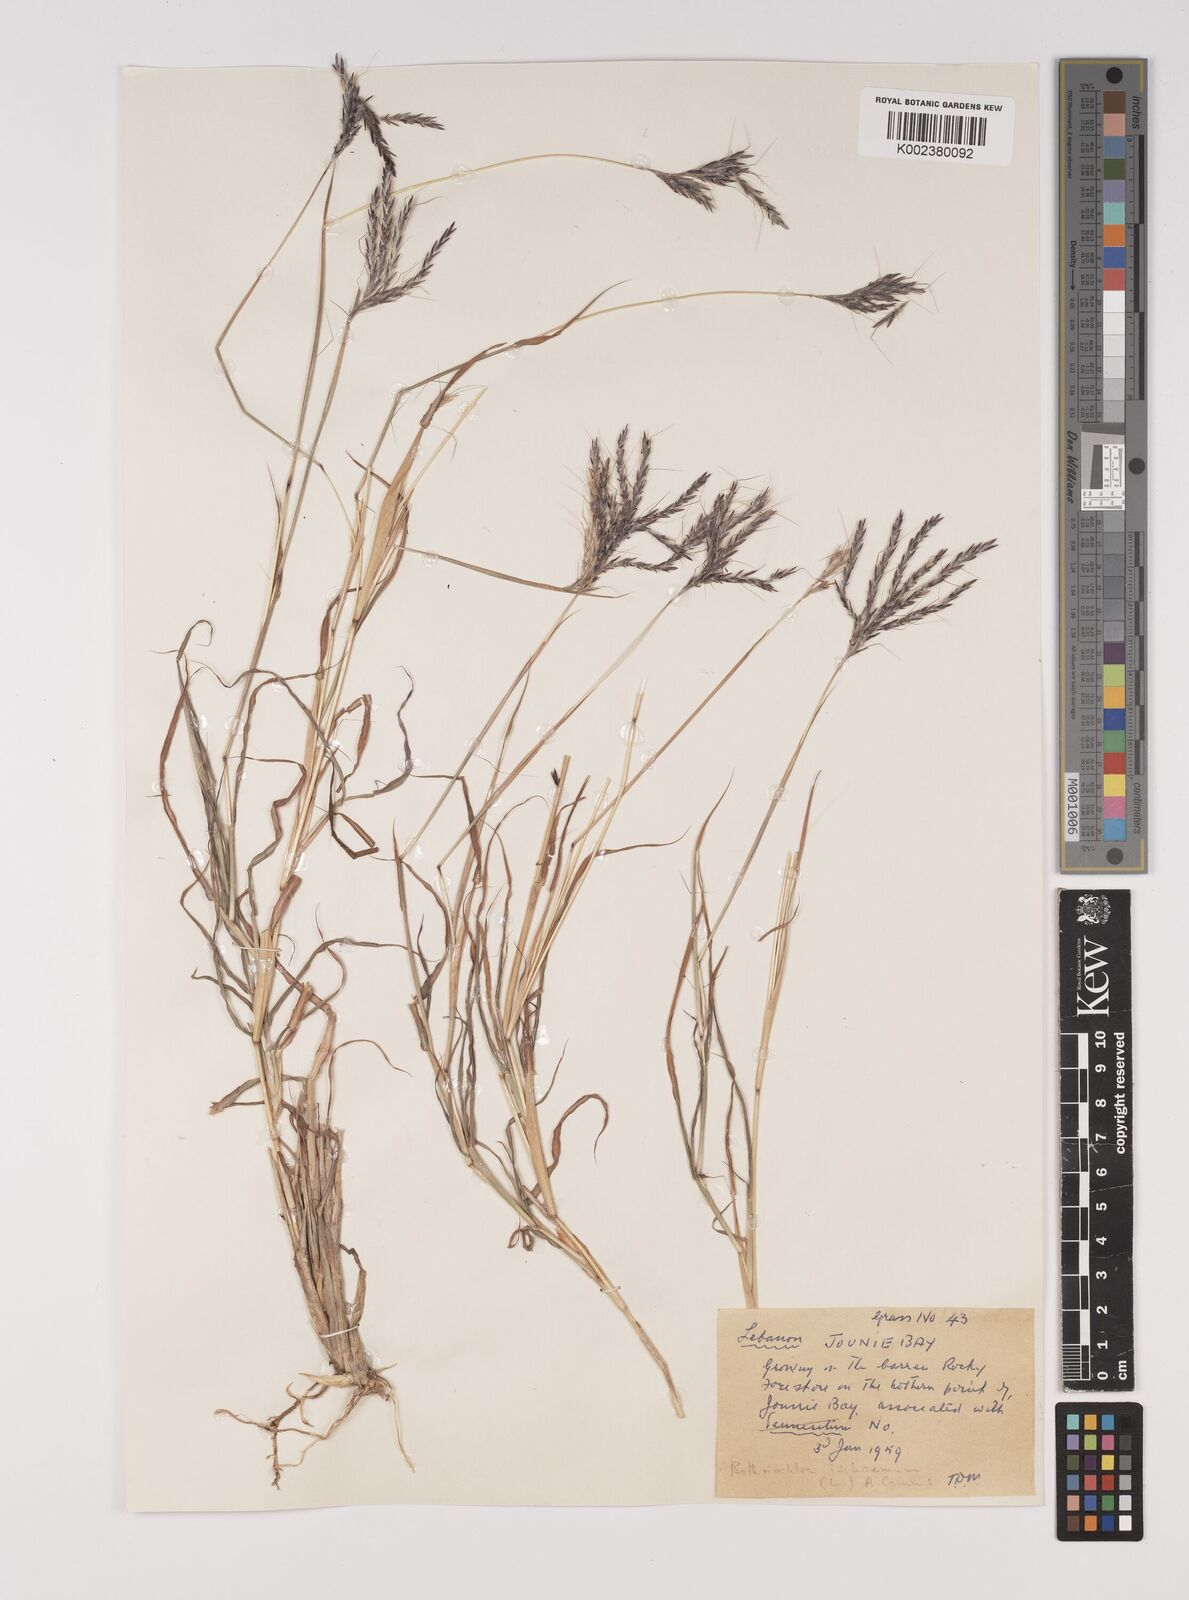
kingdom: Plantae
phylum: Tracheophyta
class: Liliopsida
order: Poales
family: Poaceae
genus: Bothriochloa
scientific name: Bothriochloa ischaemum
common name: Yellow bluestem
